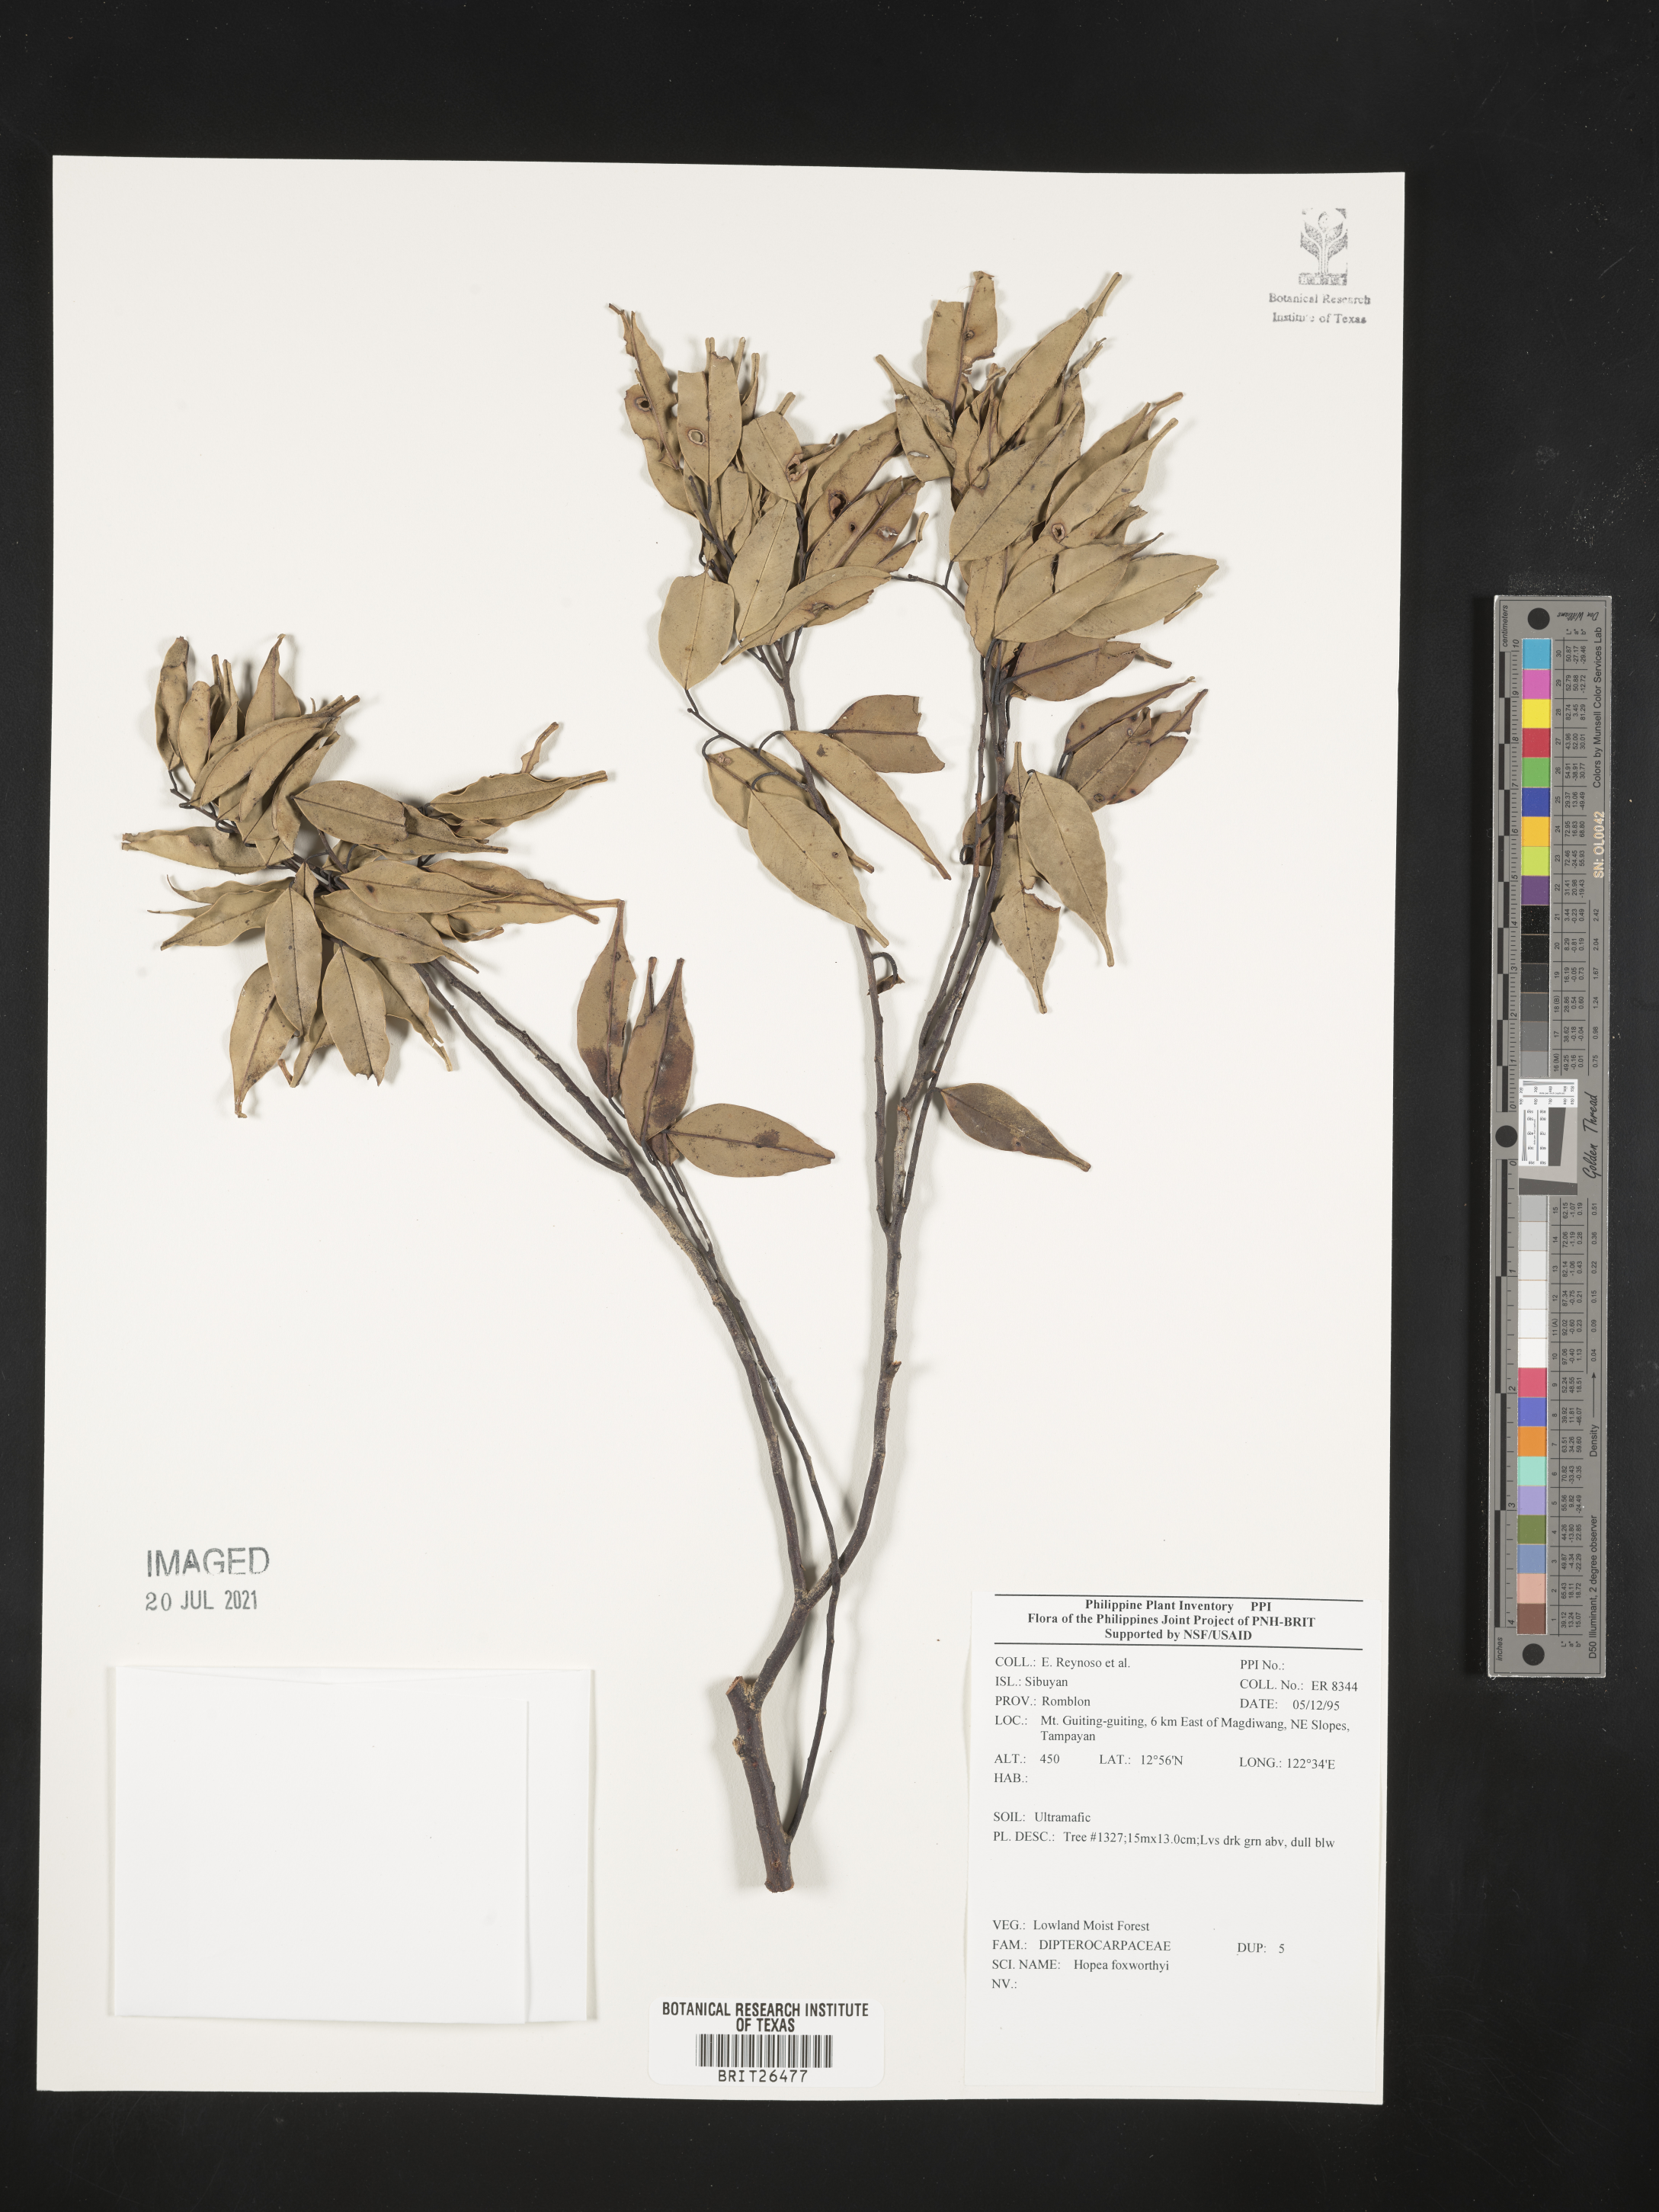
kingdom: Plantae
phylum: Tracheophyta
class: Magnoliopsida
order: Malvales
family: Dipterocarpaceae
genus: Hopea
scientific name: Hopea foxworthyi
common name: Dalingdingan
